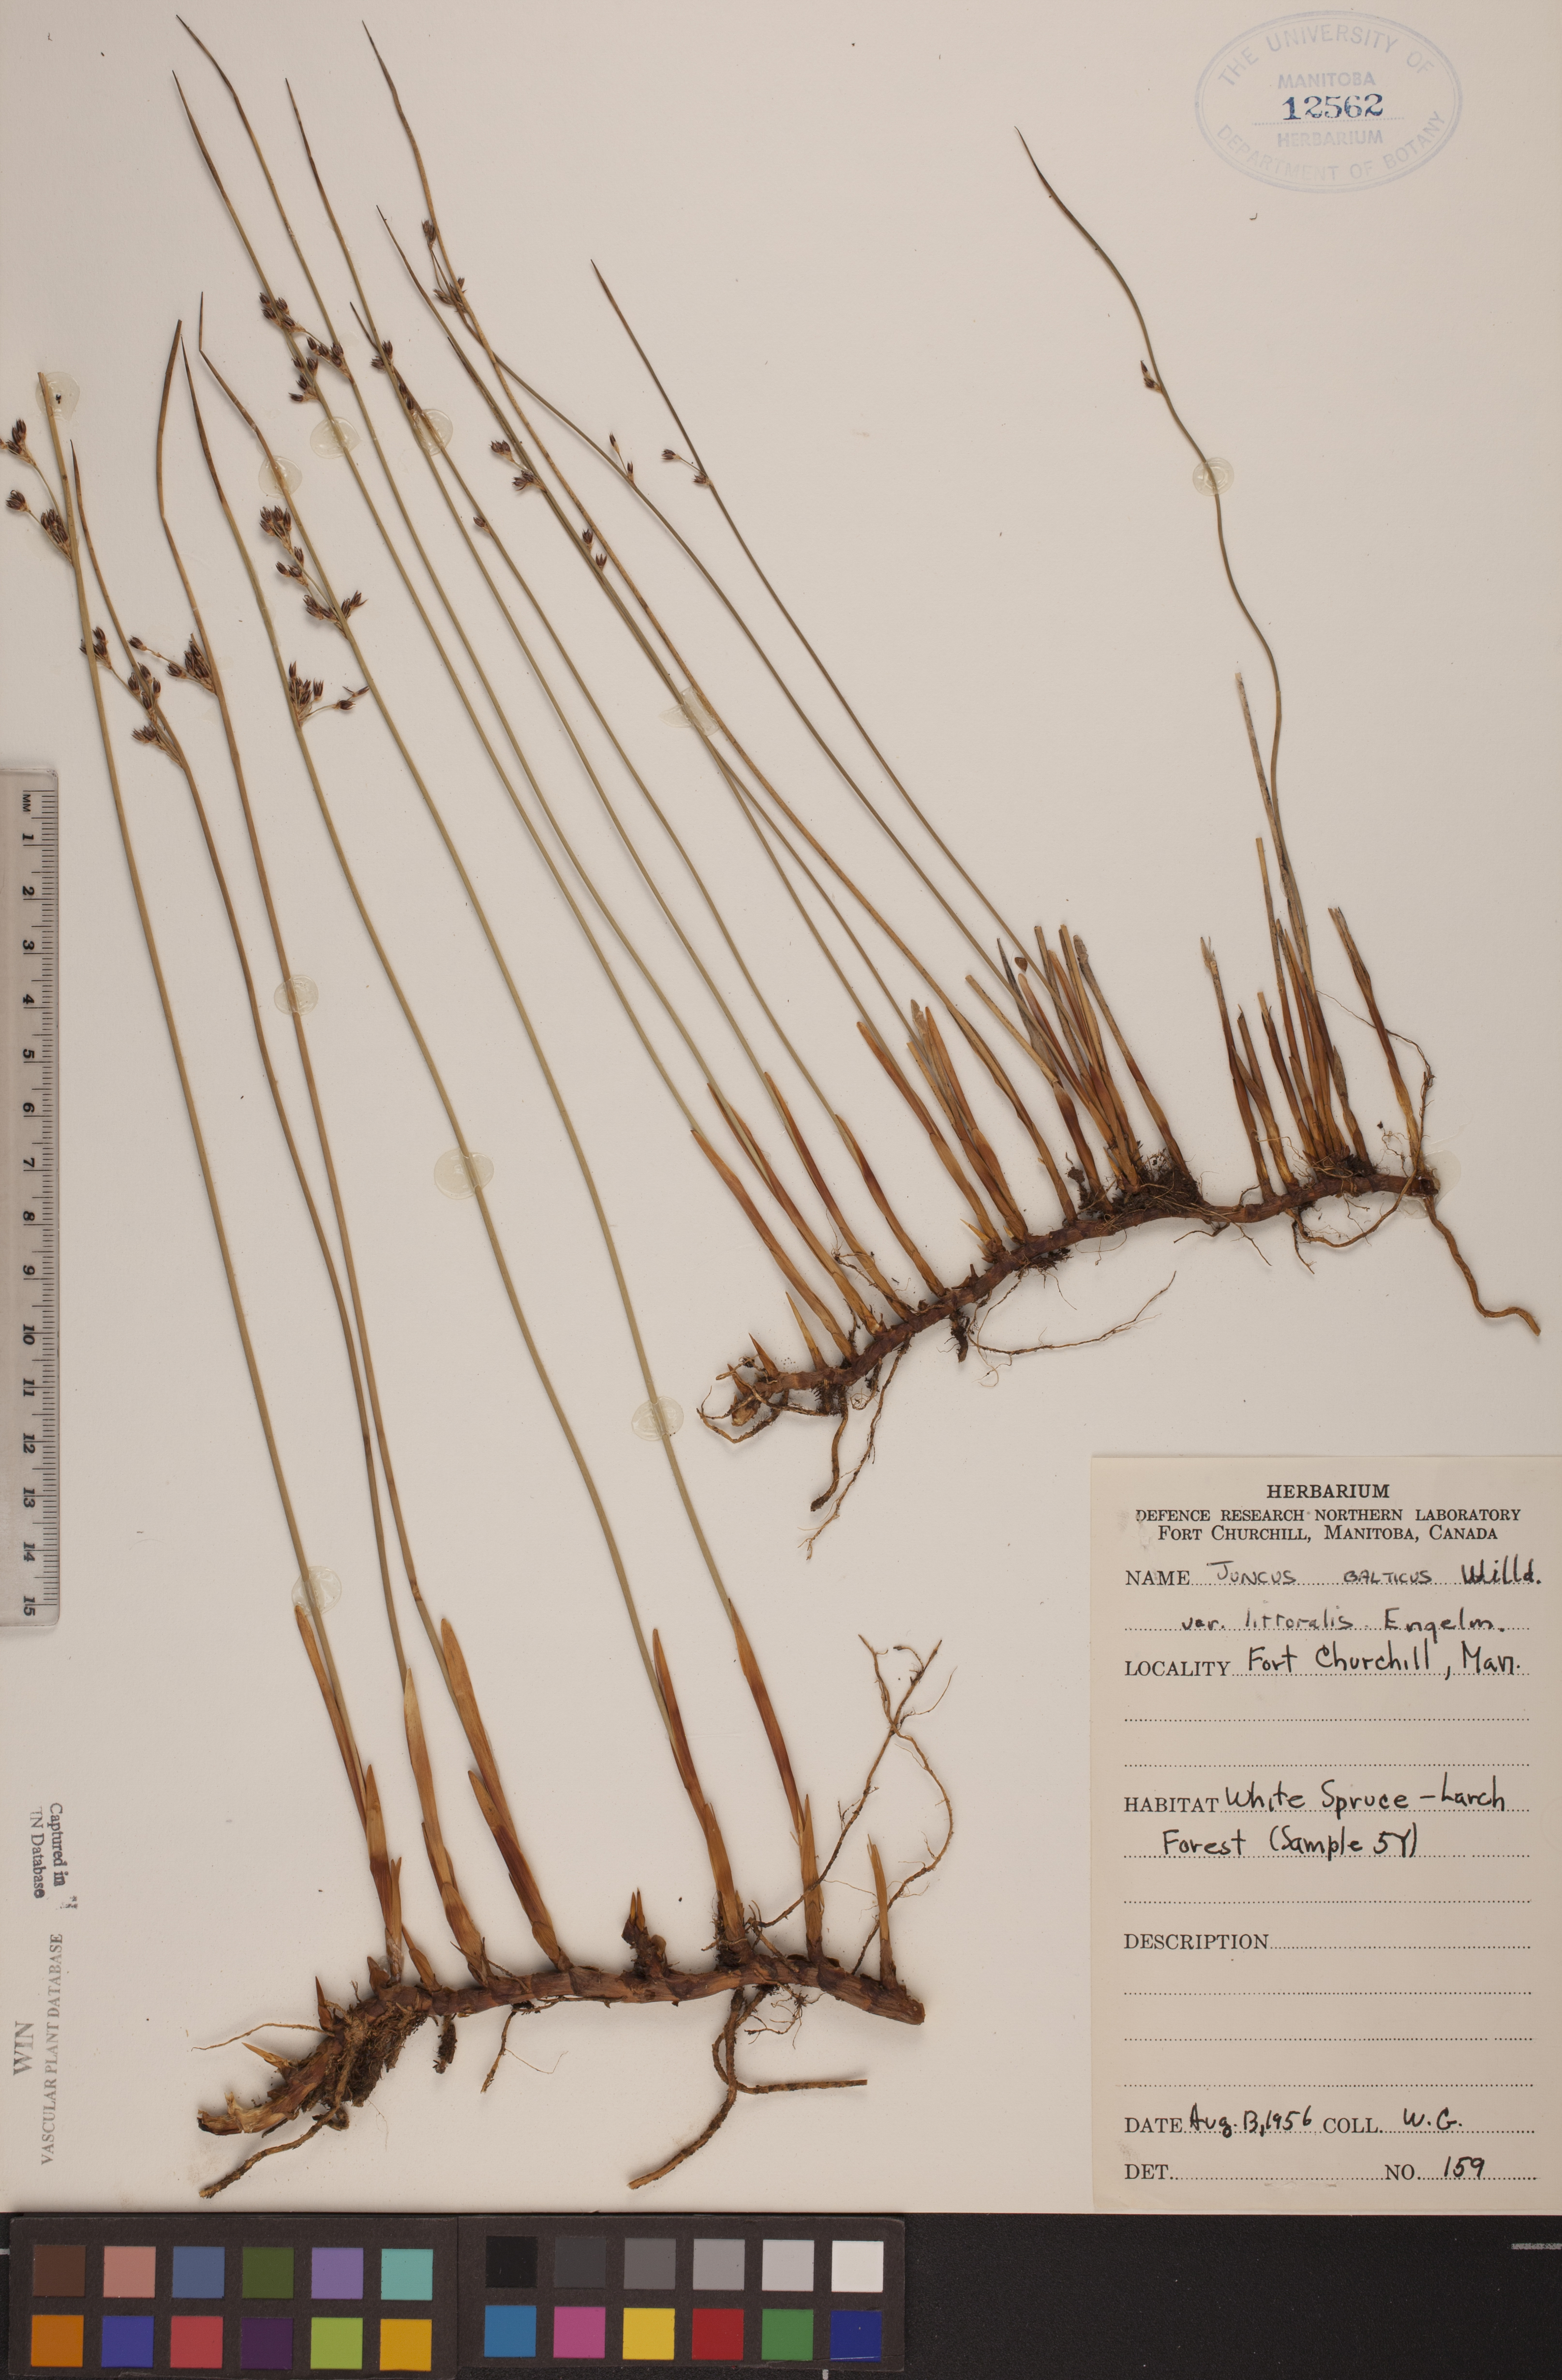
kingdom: Plantae
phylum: Tracheophyta
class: Liliopsida
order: Poales
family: Juncaceae
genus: Juncus
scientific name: Juncus balticus
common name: Baltic rush
